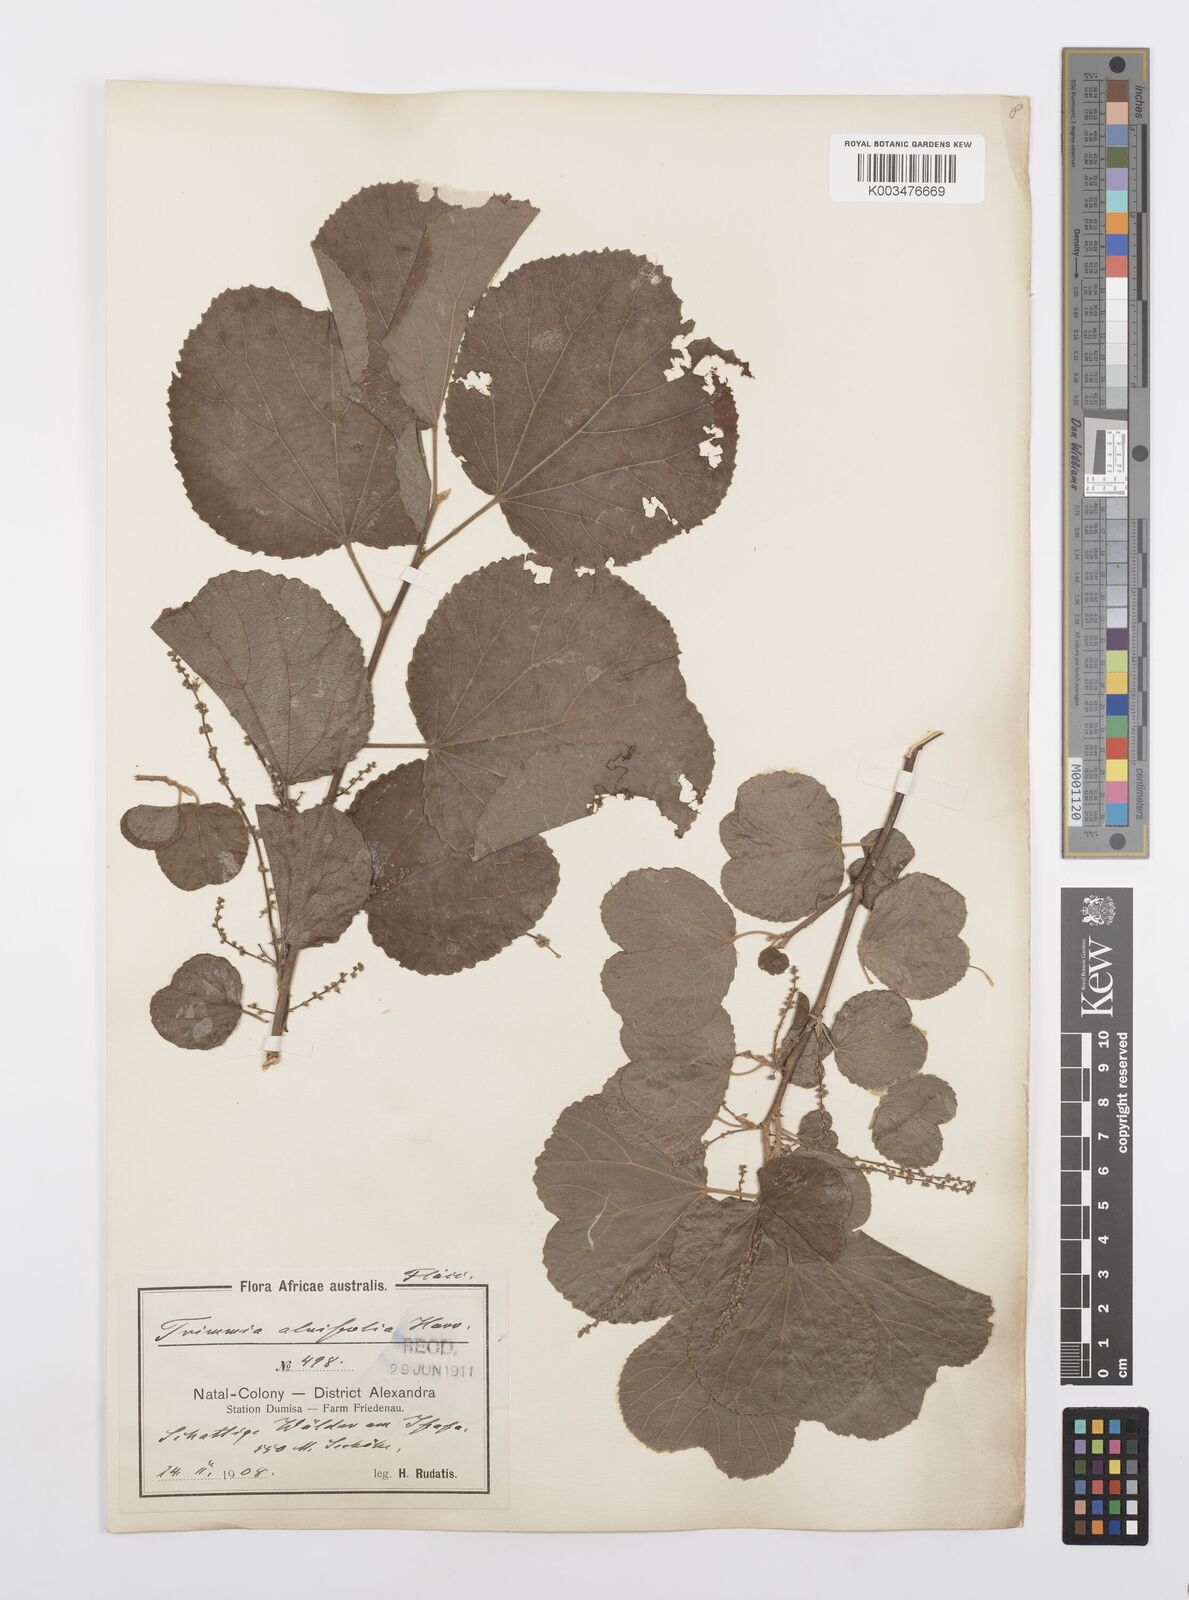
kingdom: Plantae
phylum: Tracheophyta
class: Magnoliopsida
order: Malpighiales
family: Salicaceae
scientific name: Salicaceae
